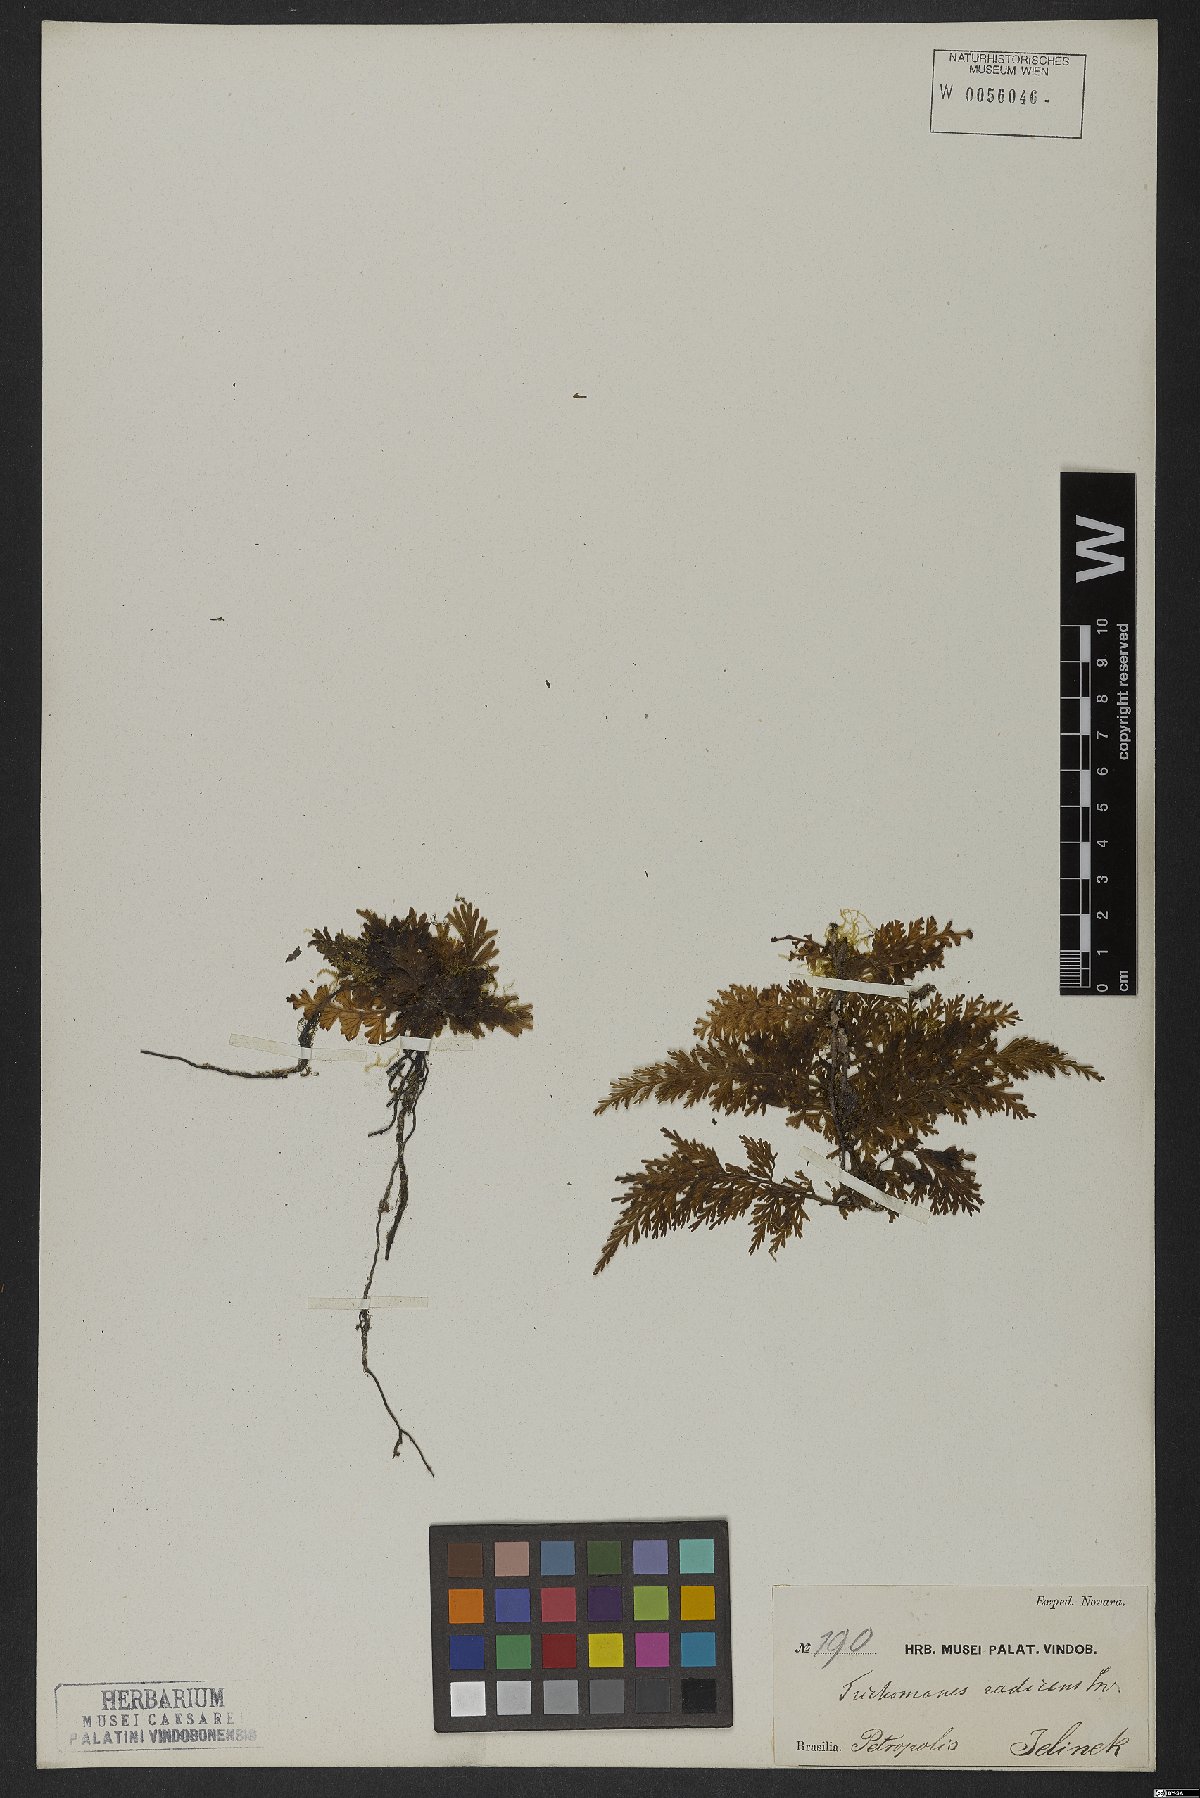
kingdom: Plantae
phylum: Tracheophyta
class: Polypodiopsida
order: Hymenophyllales
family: Hymenophyllaceae
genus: Vandenboschia
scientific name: Vandenboschia radicans
